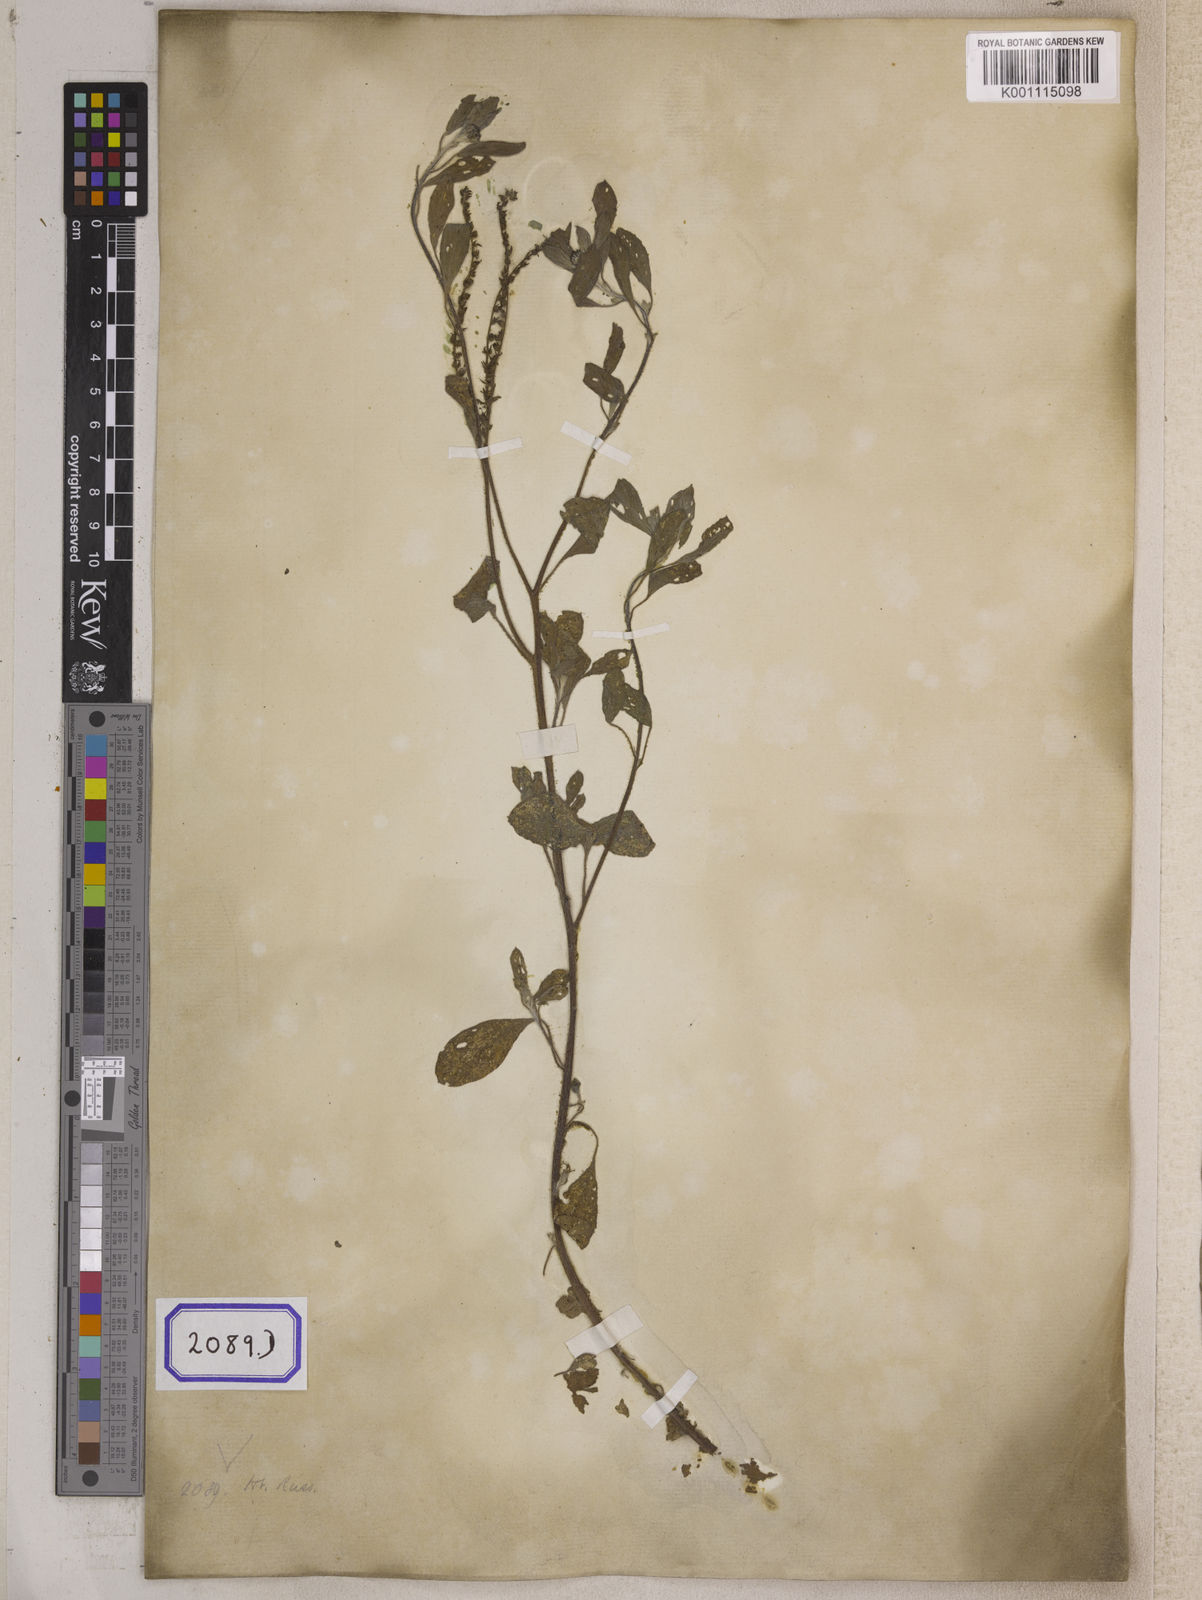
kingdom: Plantae
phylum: Tracheophyta
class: Magnoliopsida
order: Boraginales
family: Heliotropiaceae
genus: Euploca
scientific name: Euploca ovalifolia
